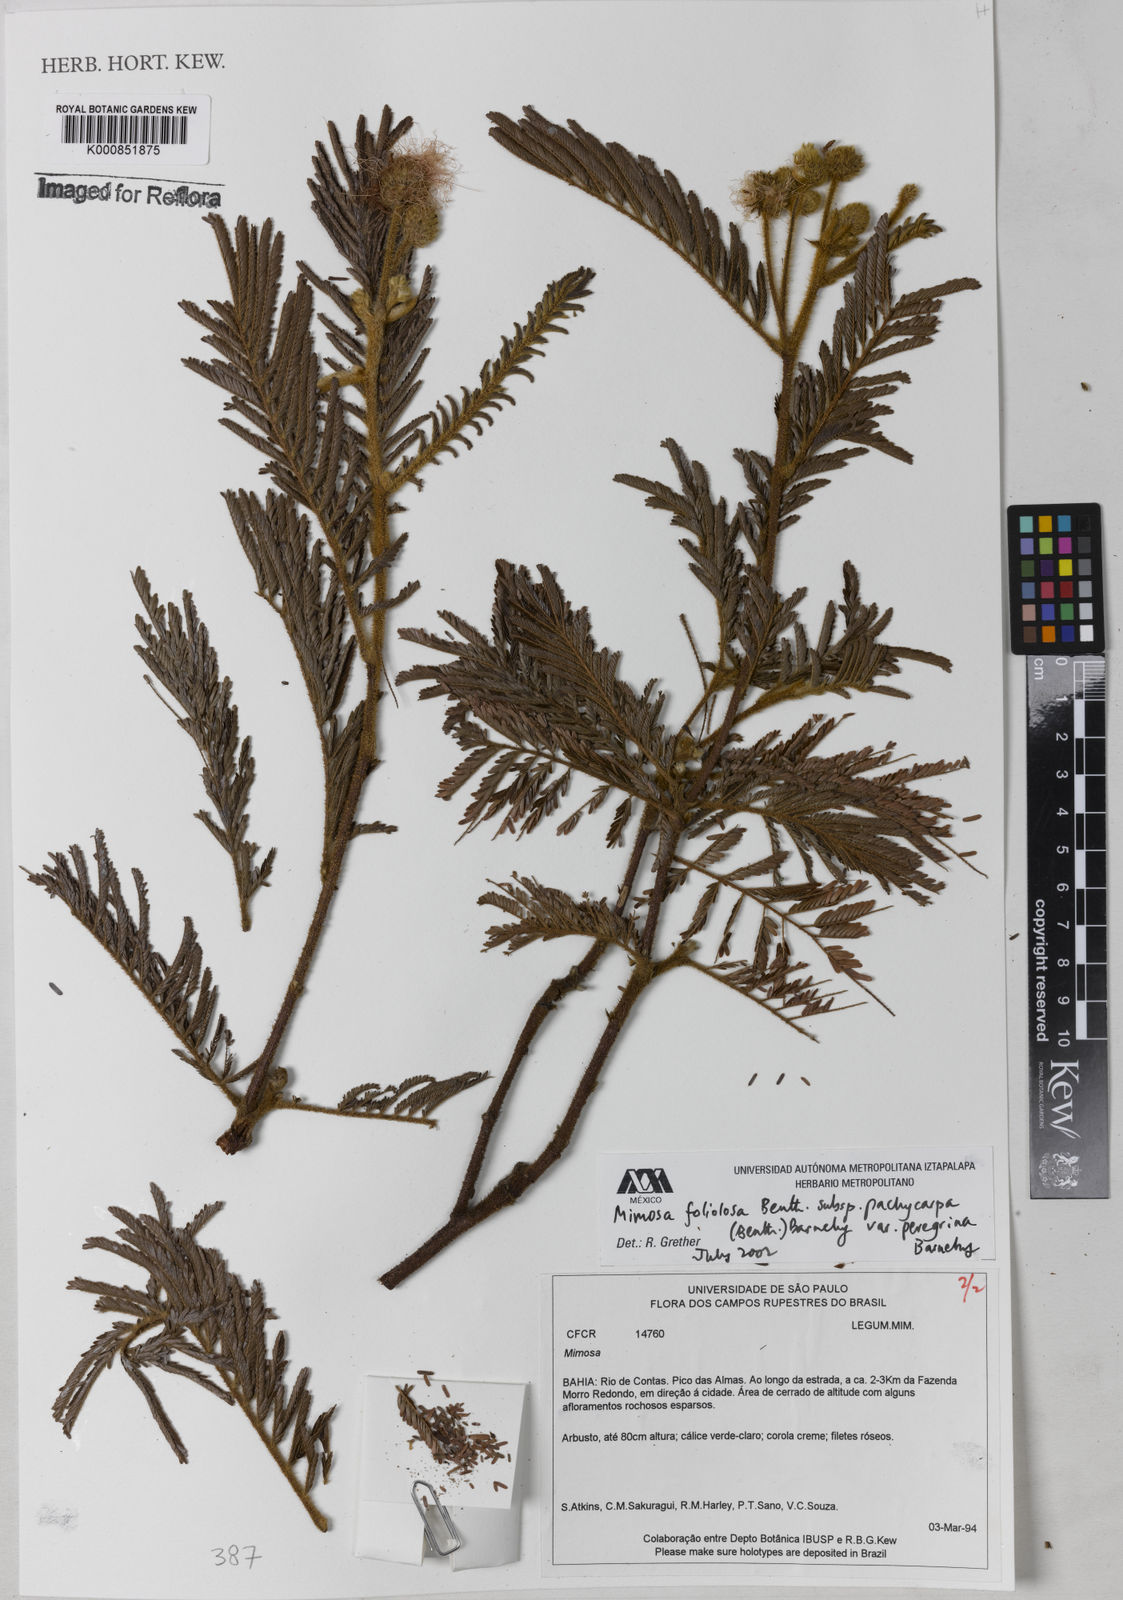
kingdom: Plantae
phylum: Tracheophyta
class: Magnoliopsida
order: Fabales
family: Fabaceae
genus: Mimosa
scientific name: Mimosa foliolosa
